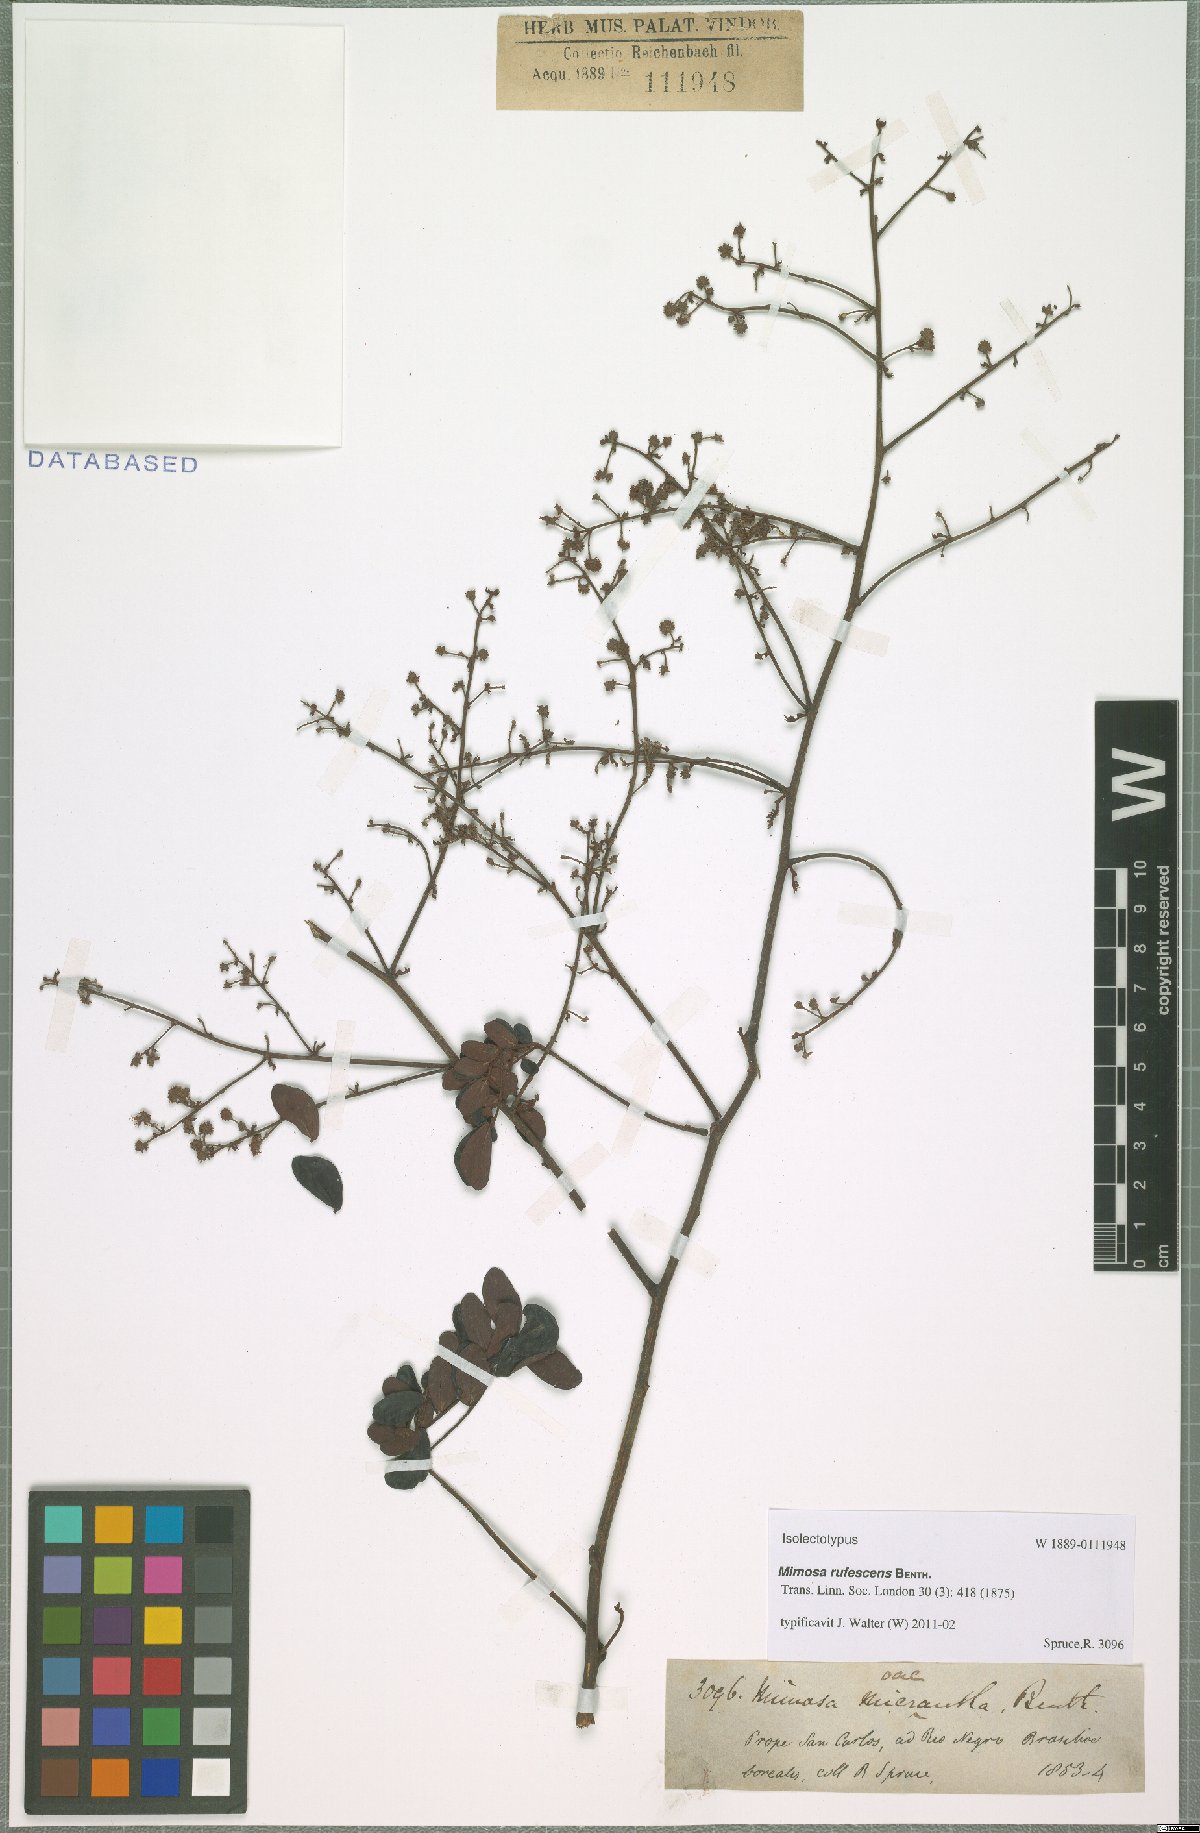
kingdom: Plantae
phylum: Tracheophyta
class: Magnoliopsida
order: Fabales
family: Fabaceae
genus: Mimosa
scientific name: Mimosa rufescens
